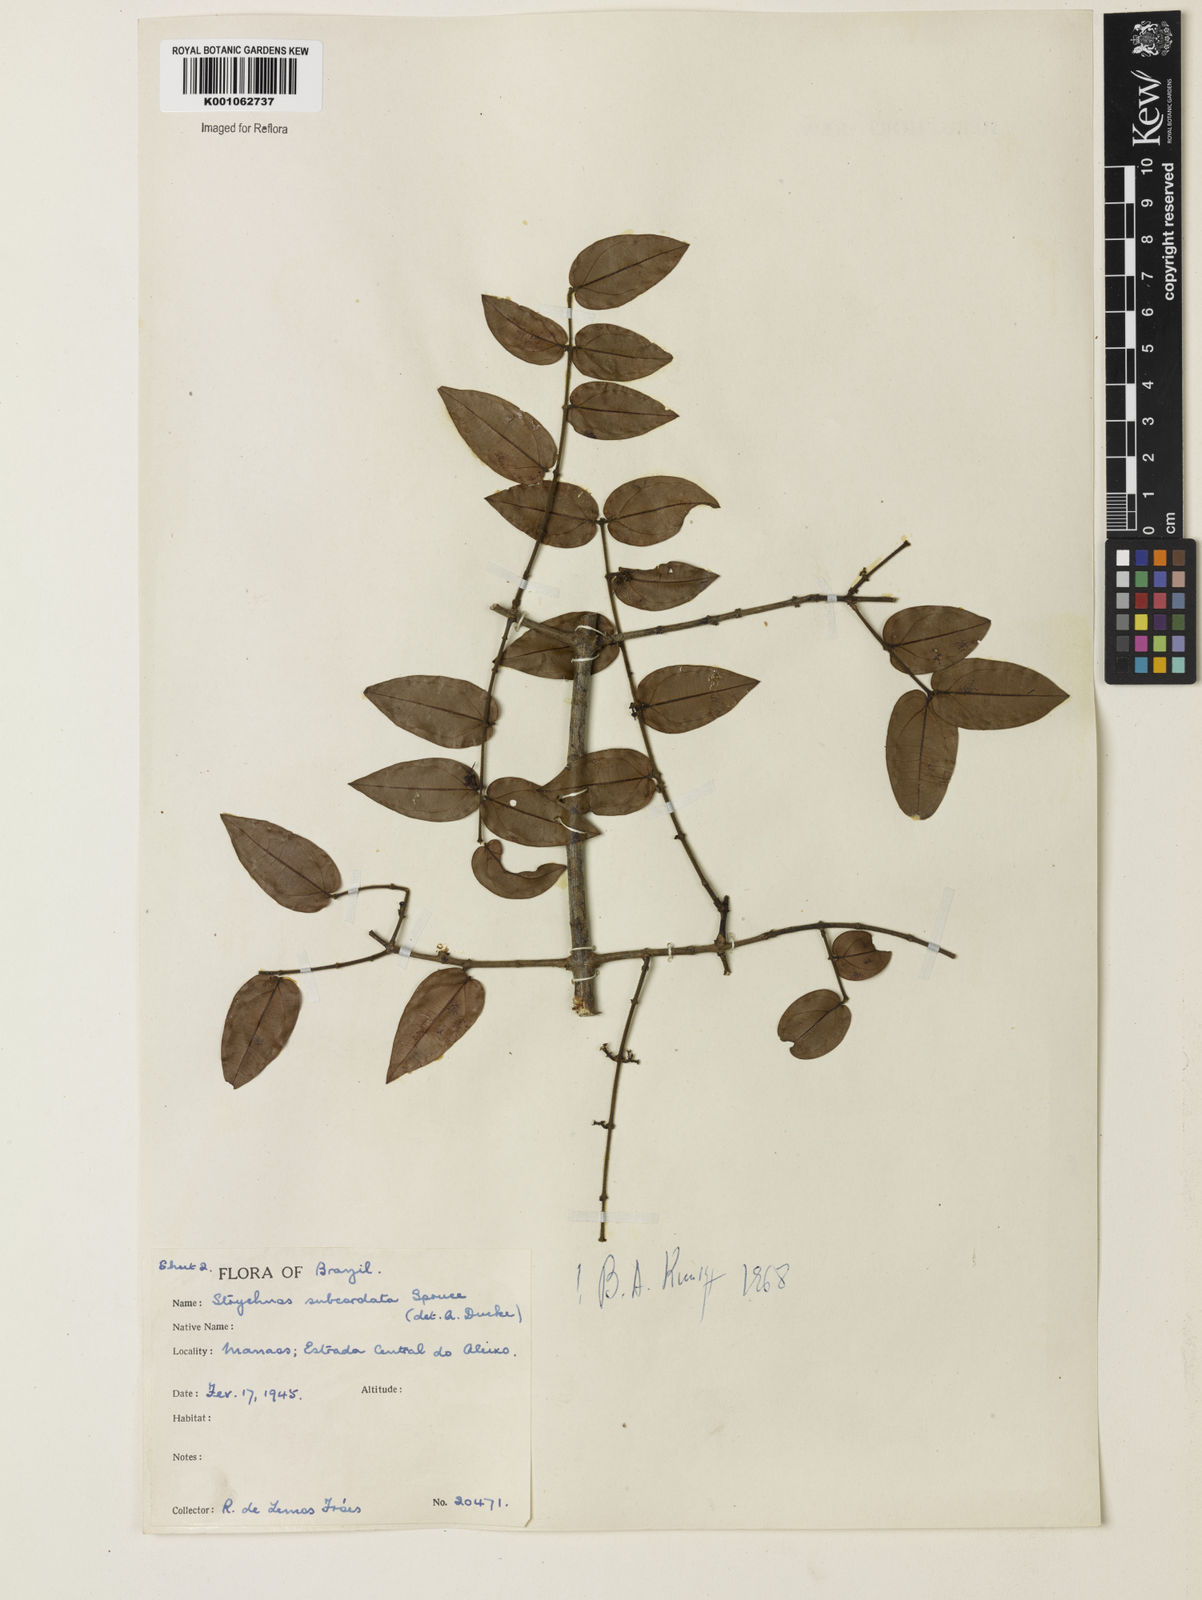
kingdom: Plantae
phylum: Tracheophyta
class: Magnoliopsida
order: Gentianales
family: Loganiaceae
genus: Strychnos
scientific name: Strychnos subcordata
